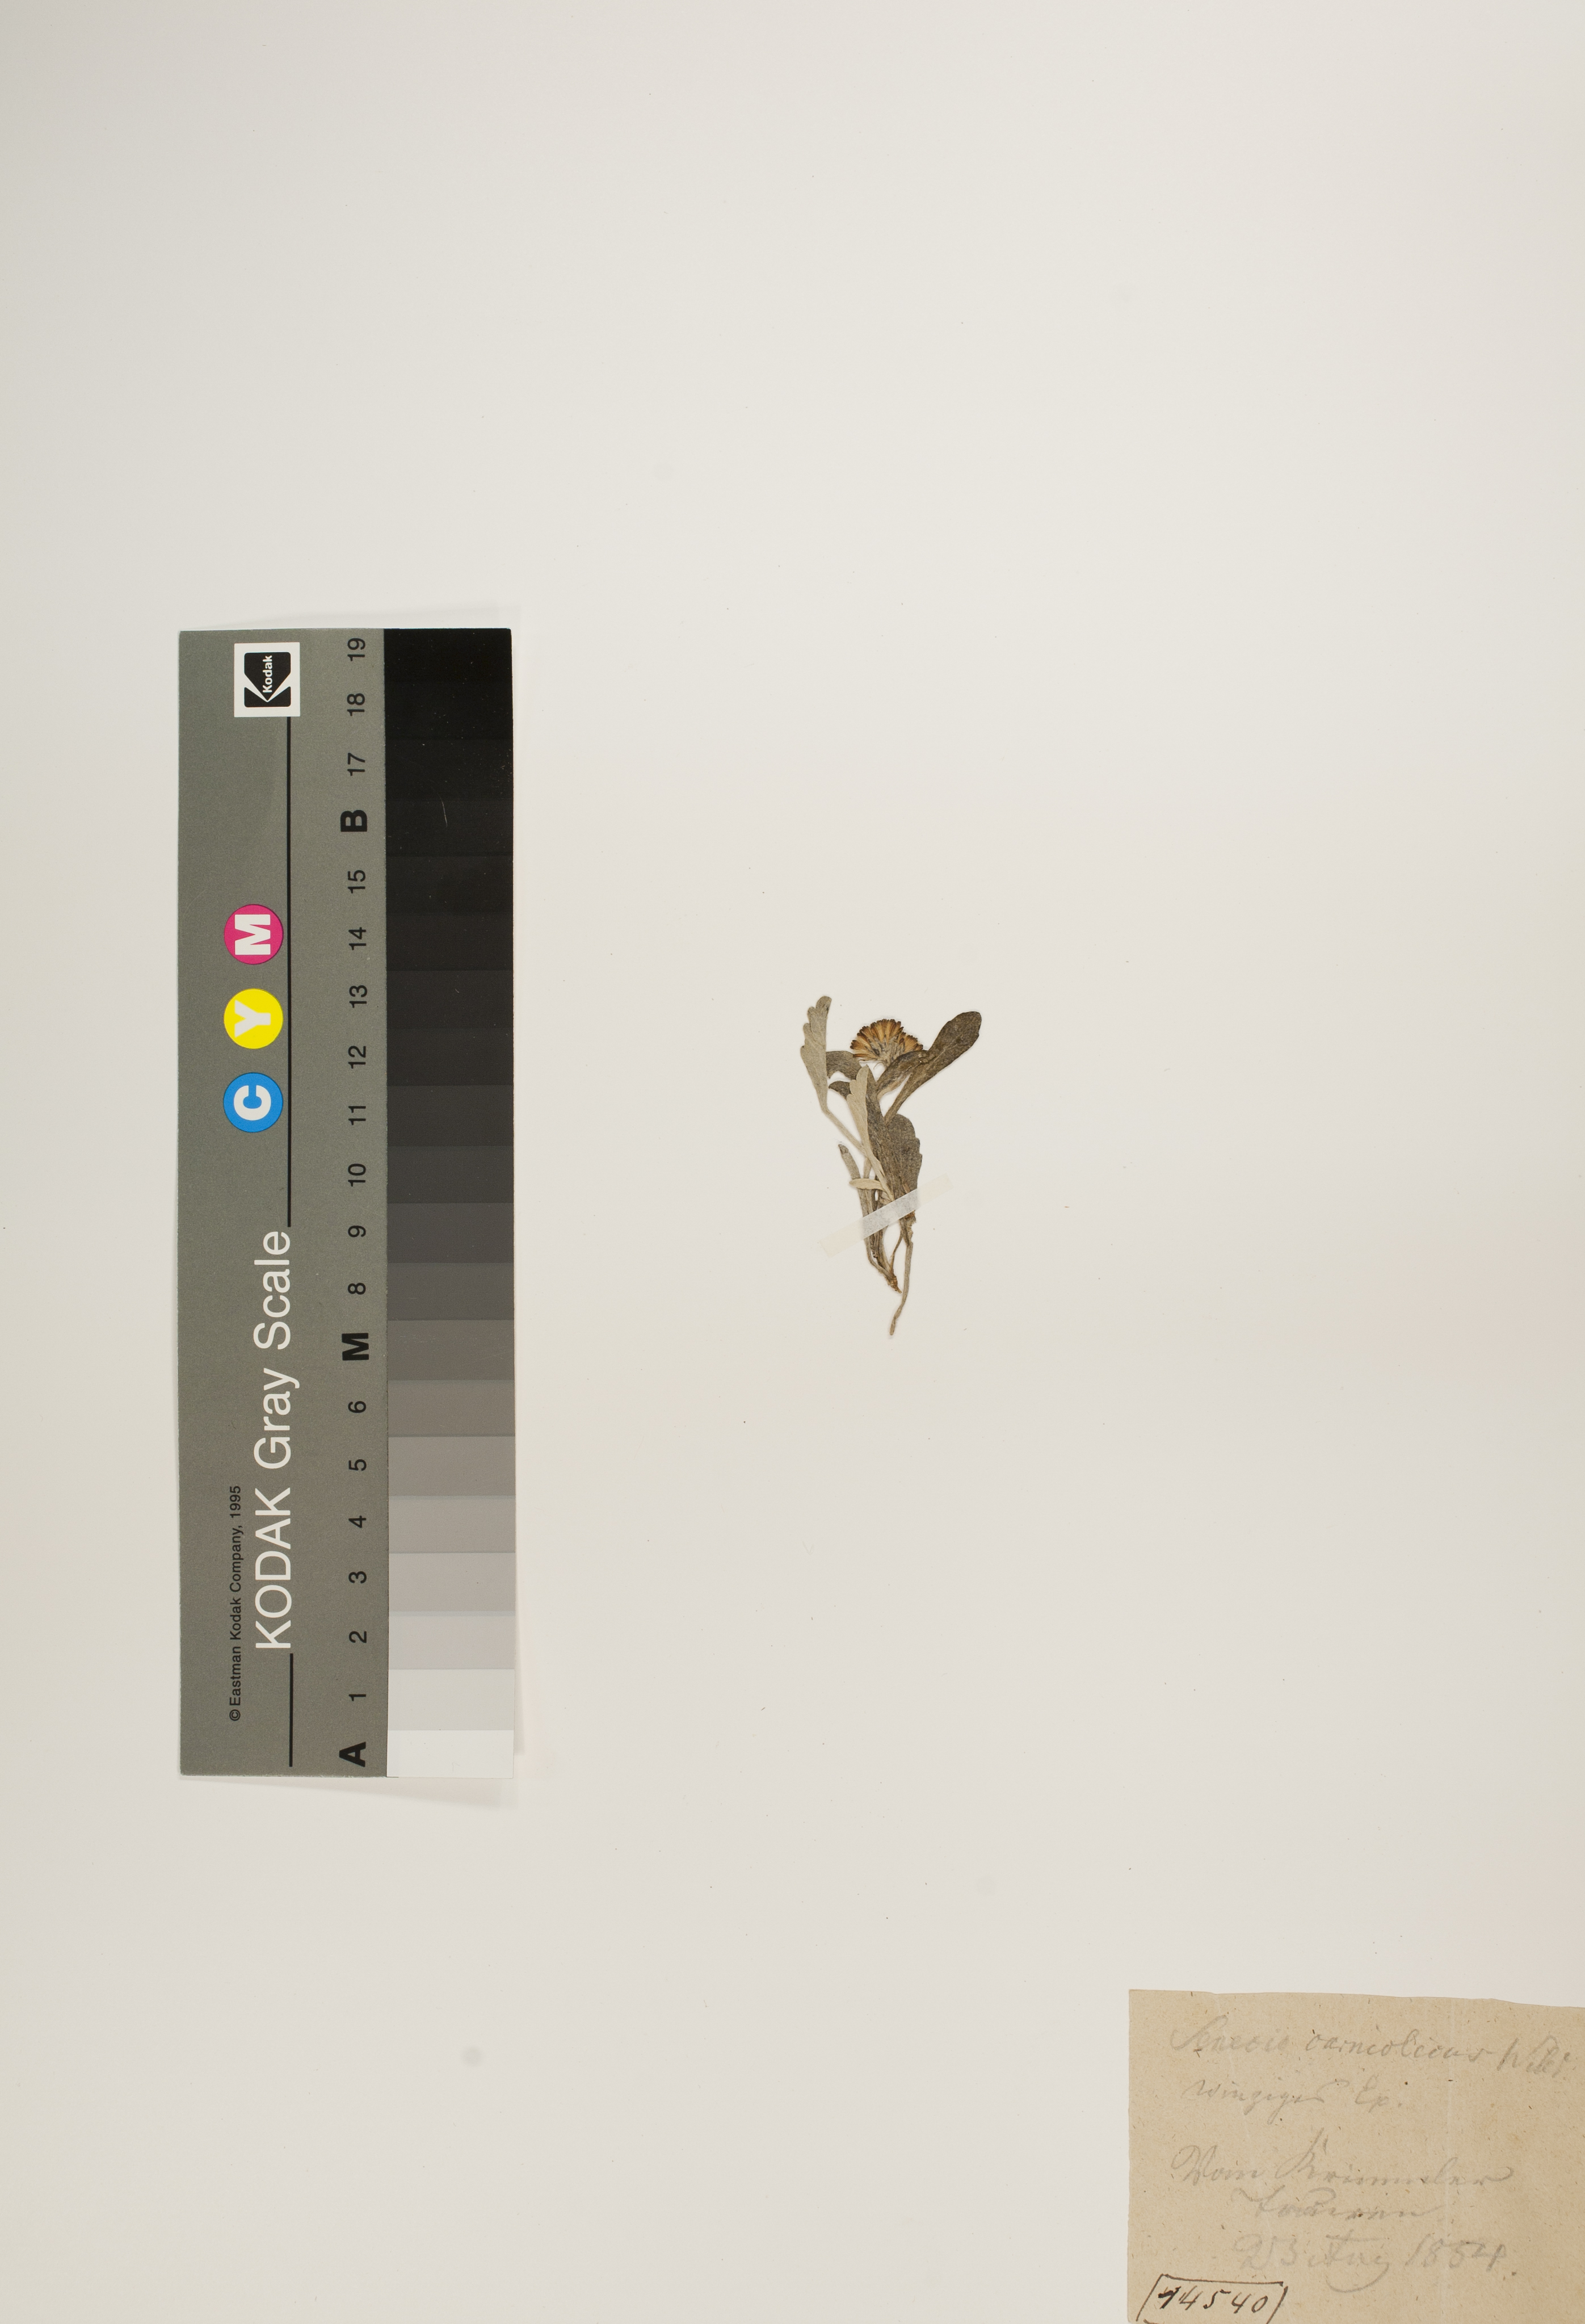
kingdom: Plantae
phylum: Tracheophyta
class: Magnoliopsida
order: Asterales
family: Asteraceae
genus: Jacobaea
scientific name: Jacobaea carniolica
